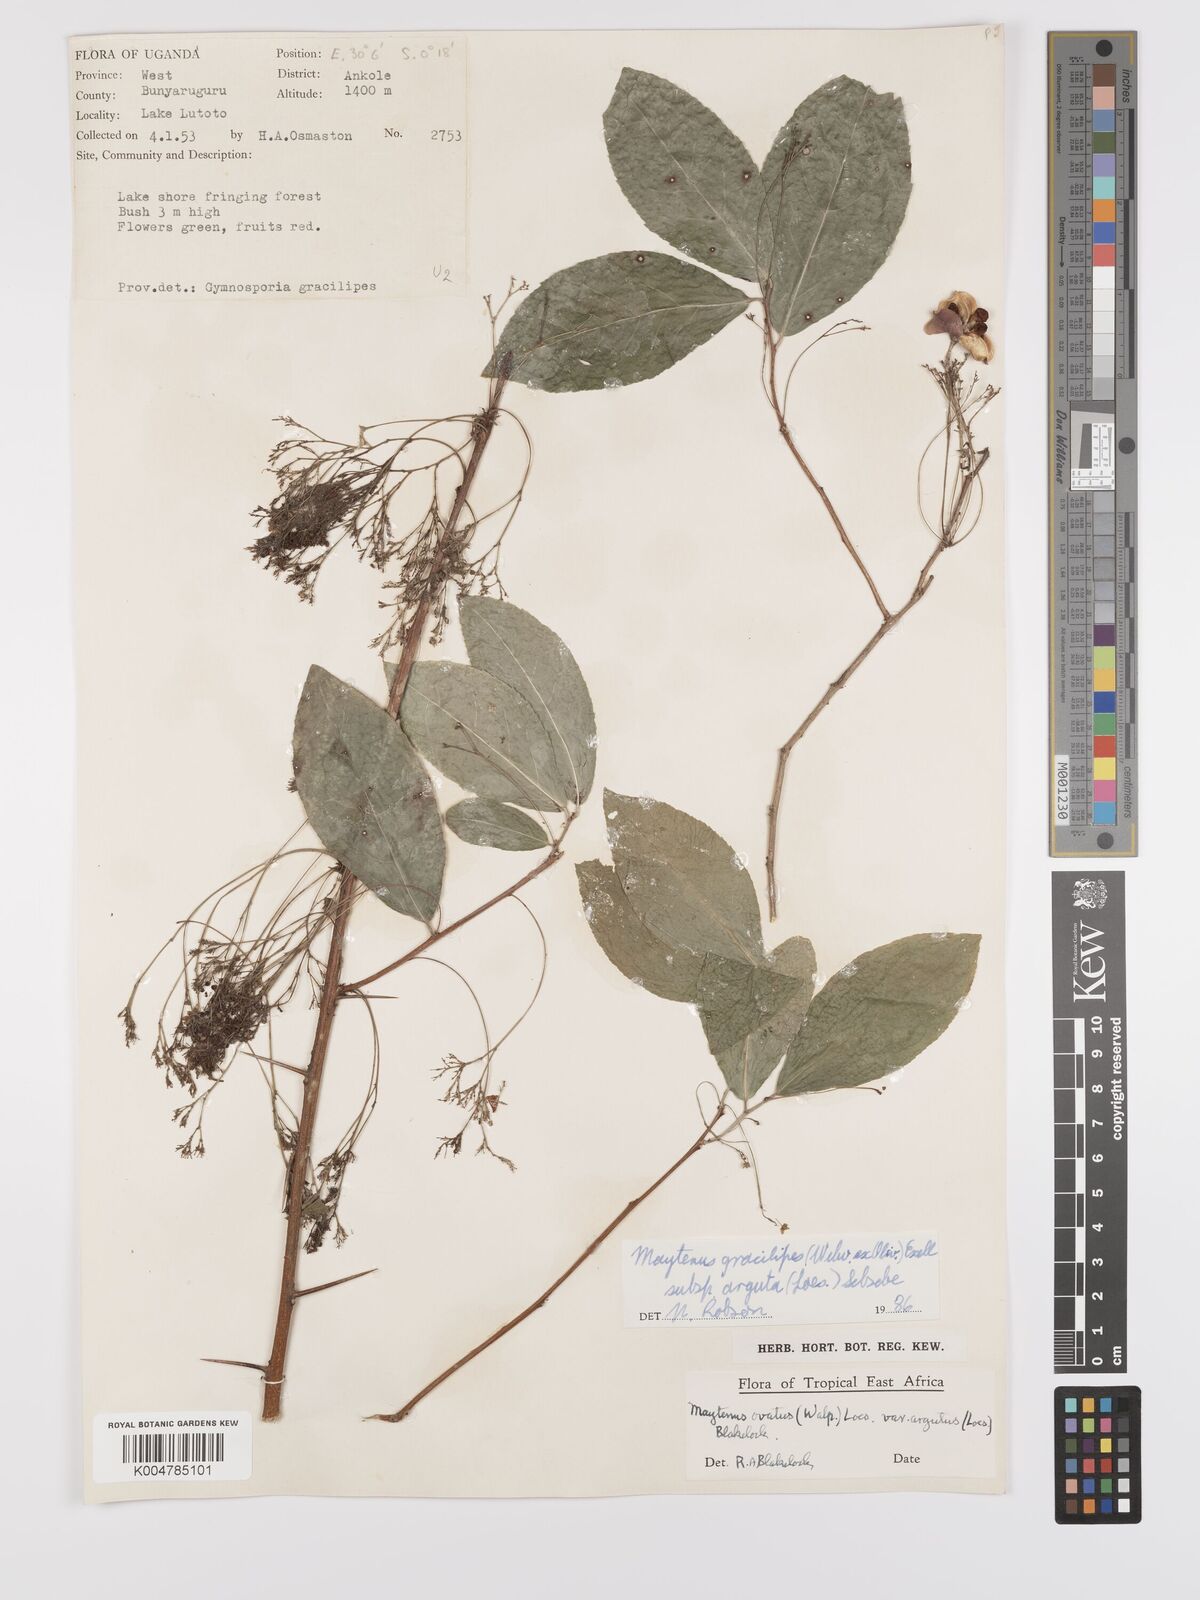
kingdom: Plantae
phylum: Tracheophyta
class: Magnoliopsida
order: Celastrales
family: Celastraceae
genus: Gymnosporia
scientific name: Gymnosporia gracilipes
